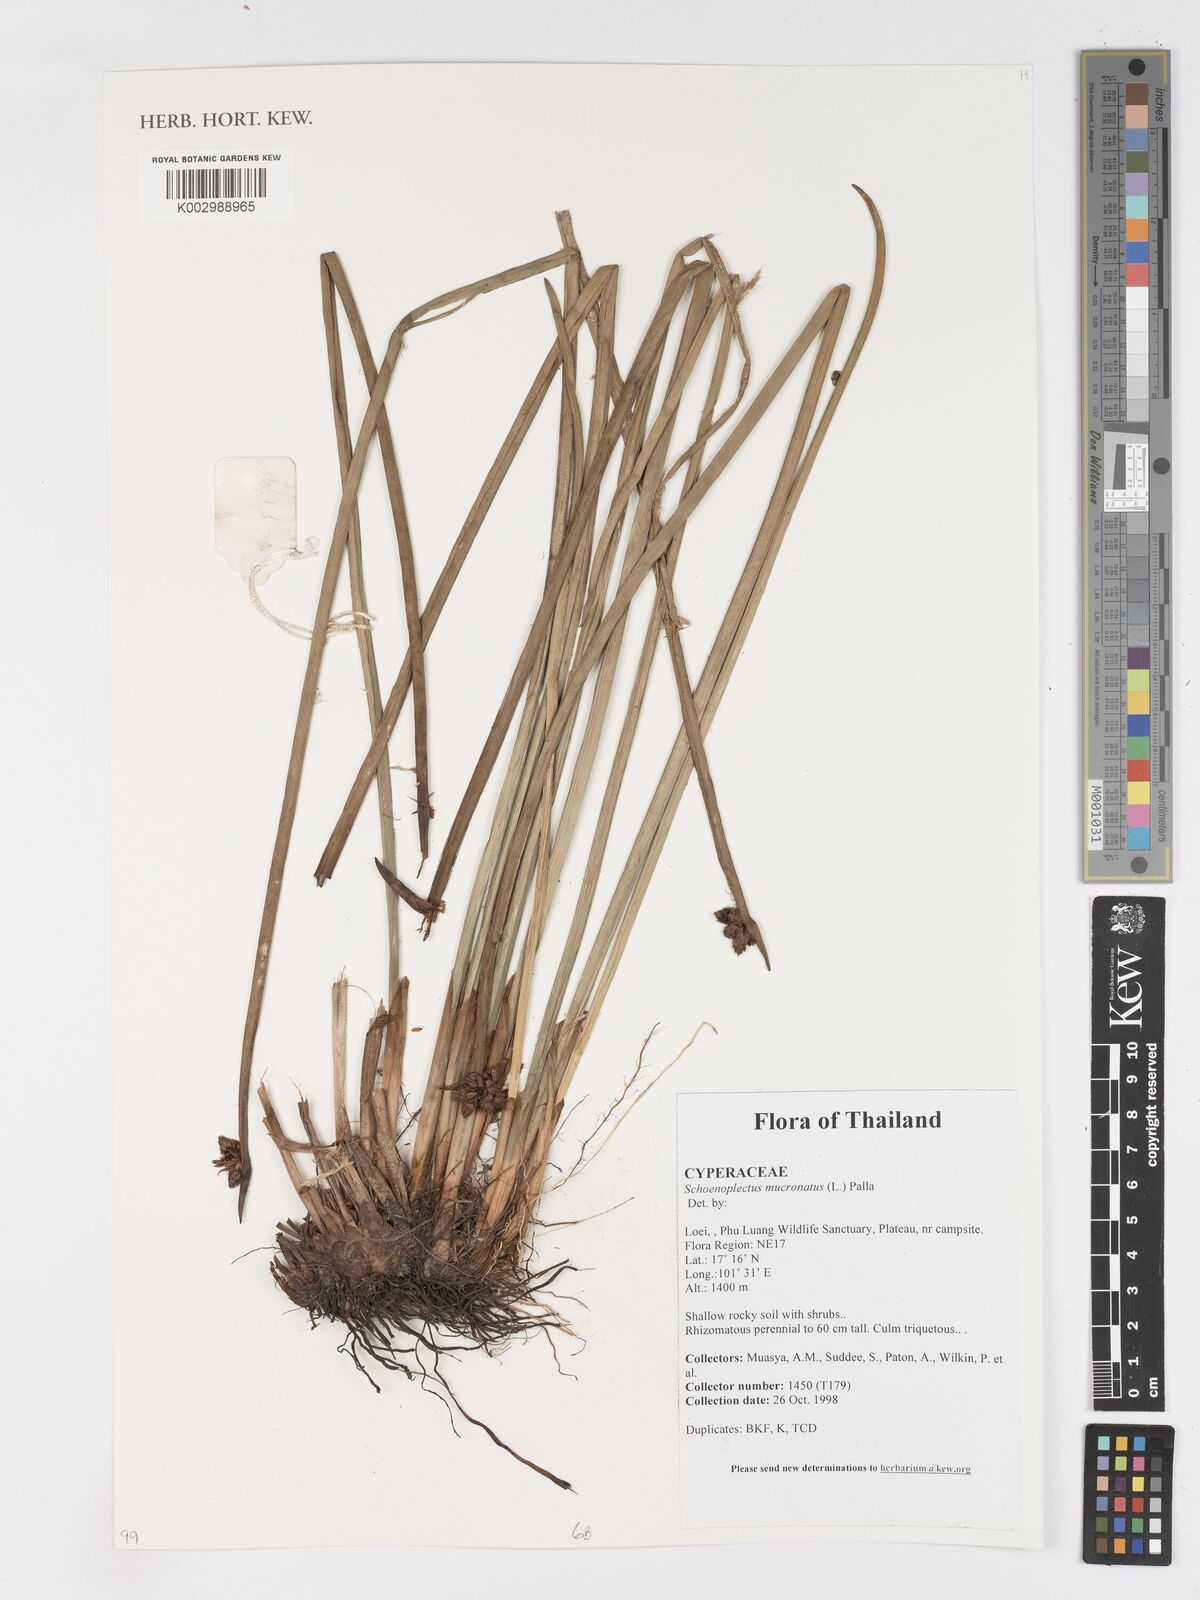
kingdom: Plantae
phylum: Tracheophyta
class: Liliopsida
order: Poales
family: Cyperaceae
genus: Schoenoplectiella
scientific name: Schoenoplectiella mucronata
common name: Bog bulrush
